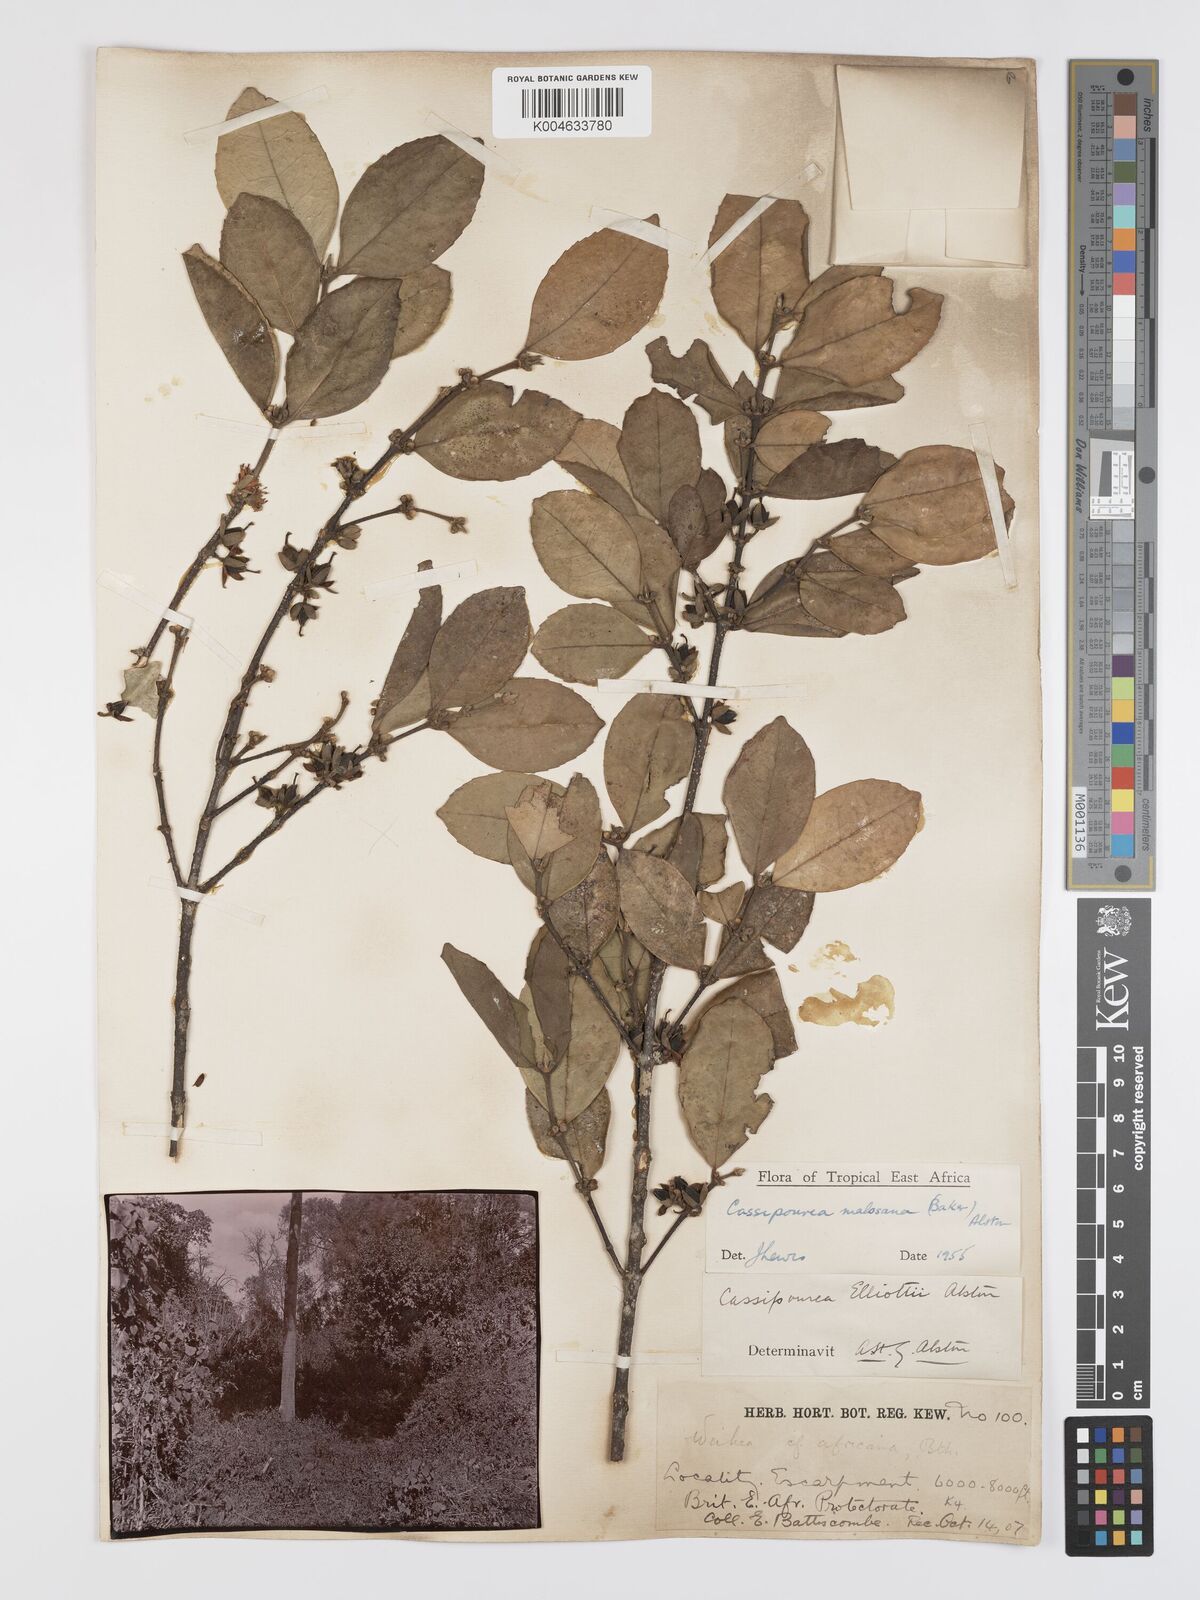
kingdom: Plantae
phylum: Tracheophyta
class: Magnoliopsida
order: Malpighiales
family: Rhizophoraceae
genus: Cassipourea
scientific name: Cassipourea malosana
